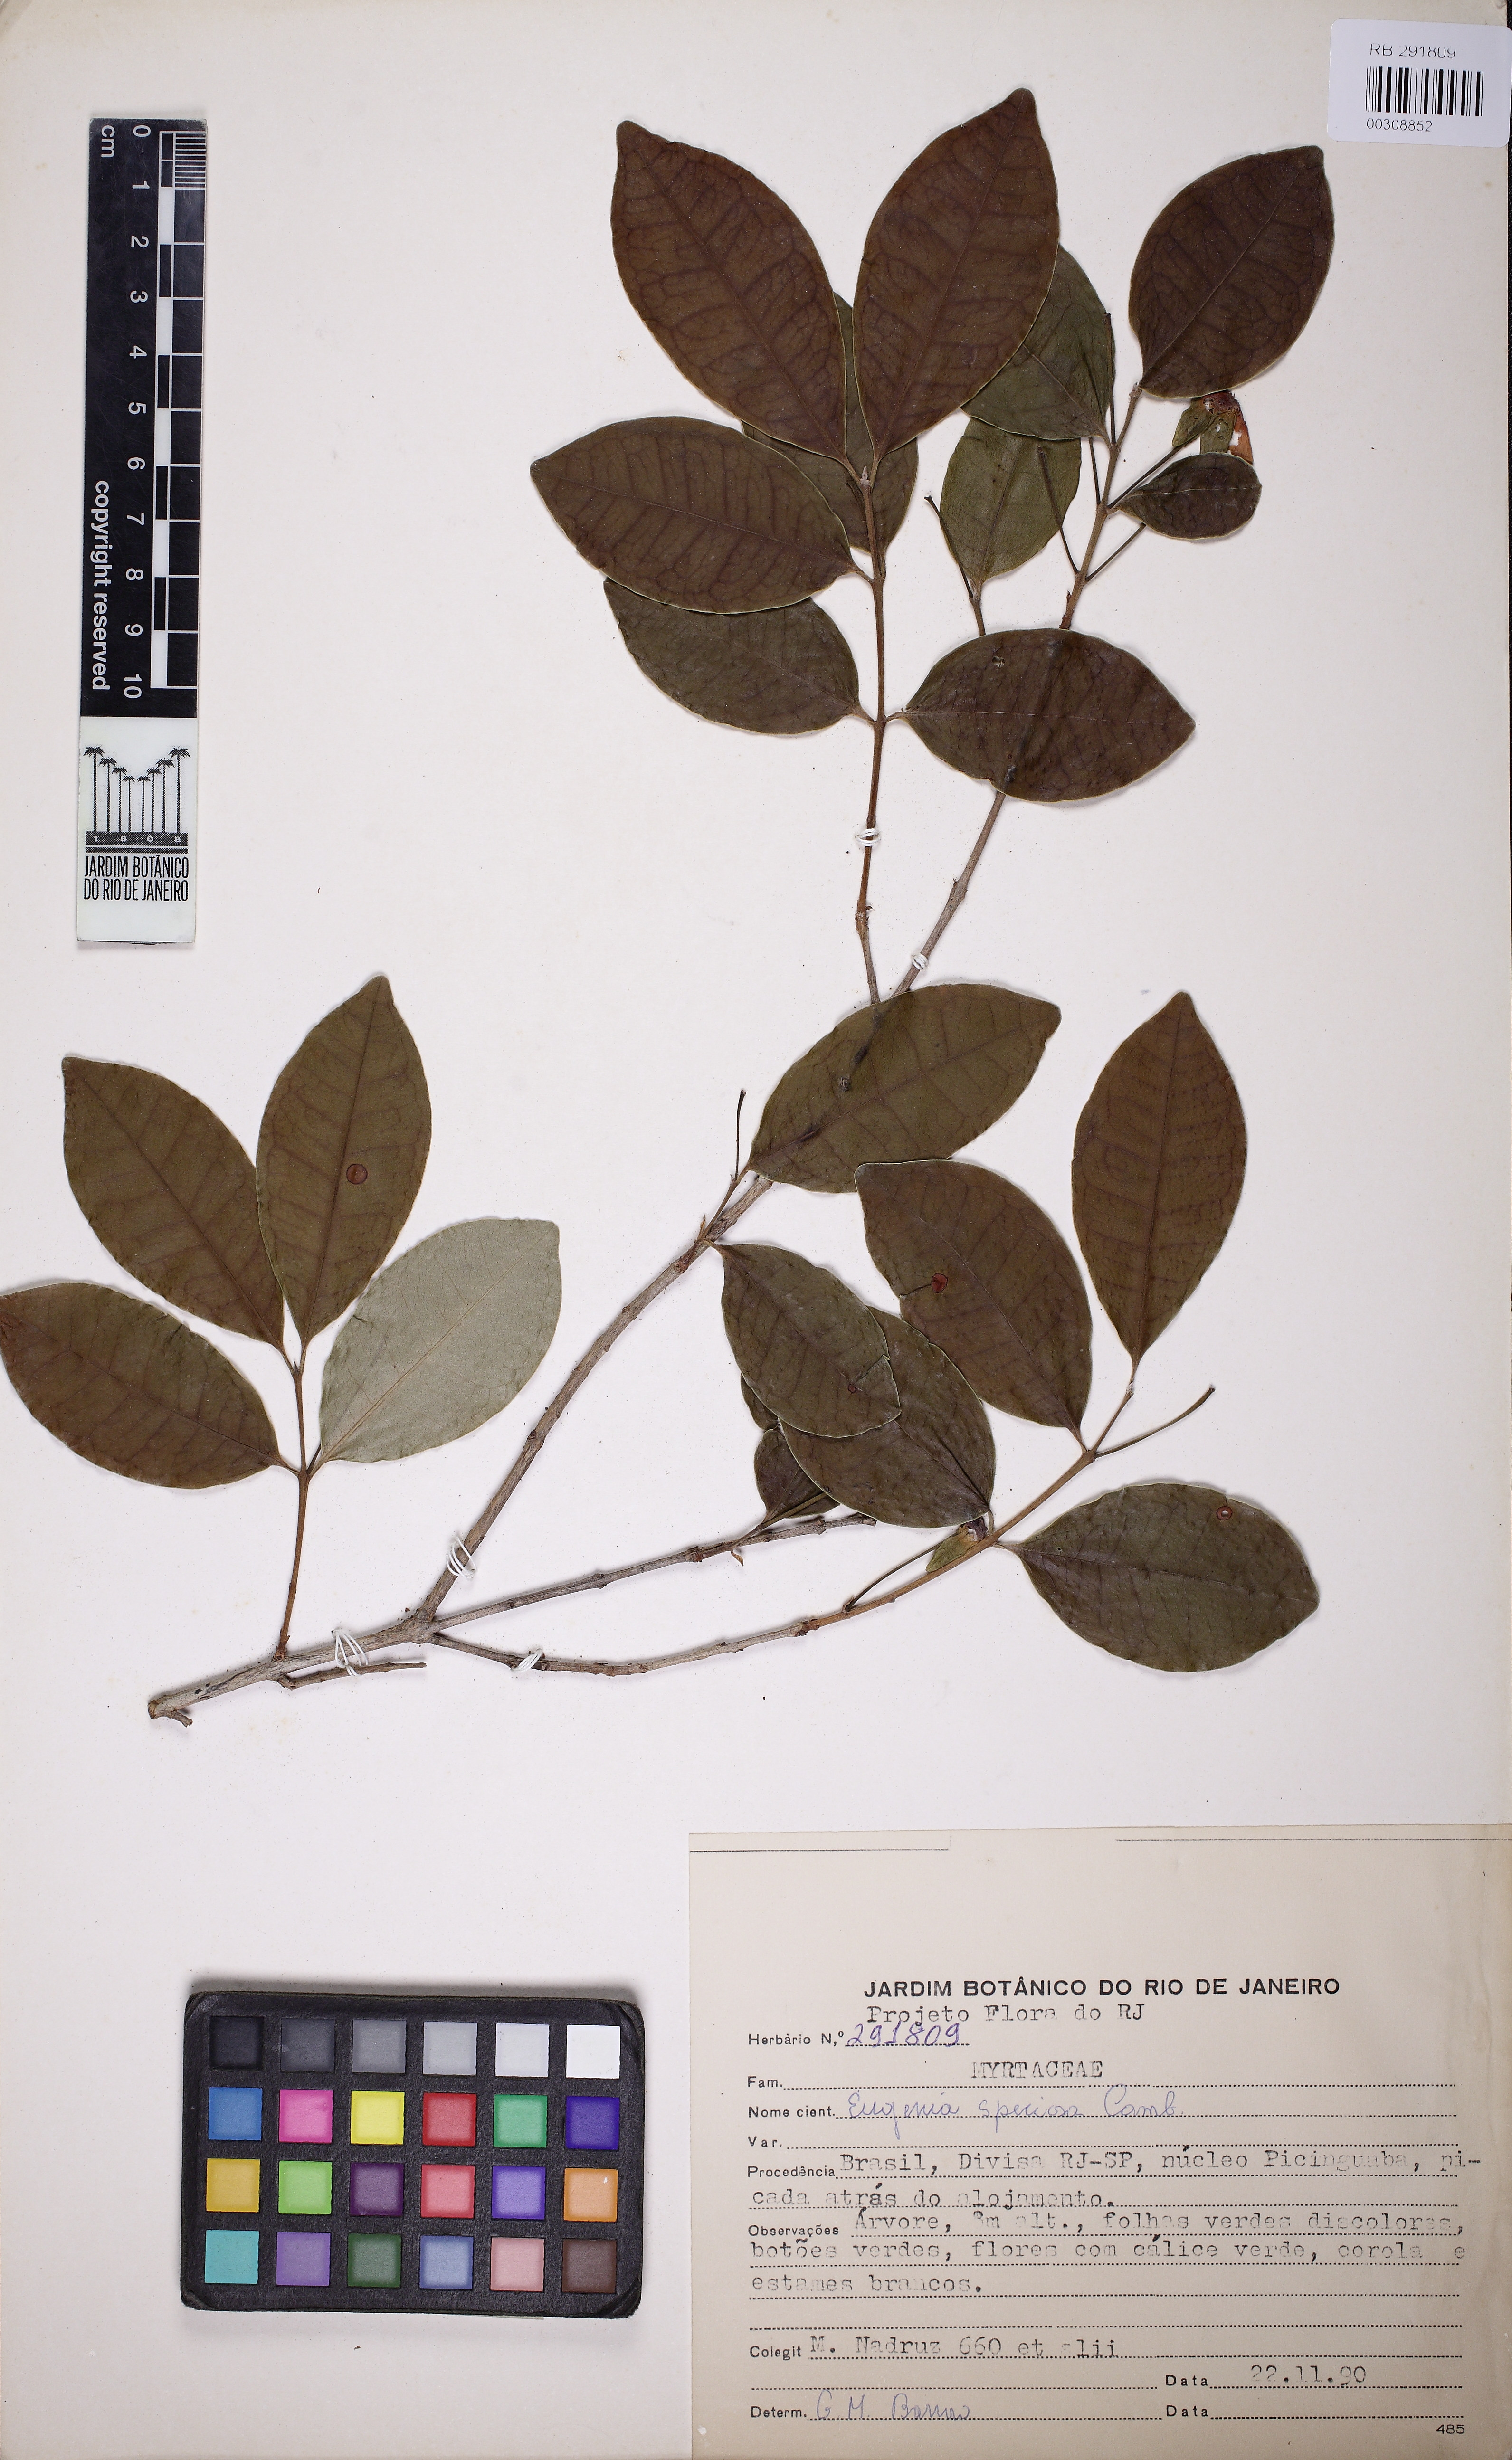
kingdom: Plantae
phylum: Tracheophyta
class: Magnoliopsida
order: Myrtales
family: Myrtaceae
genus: Eugenia
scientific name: Eugenia speciosa
